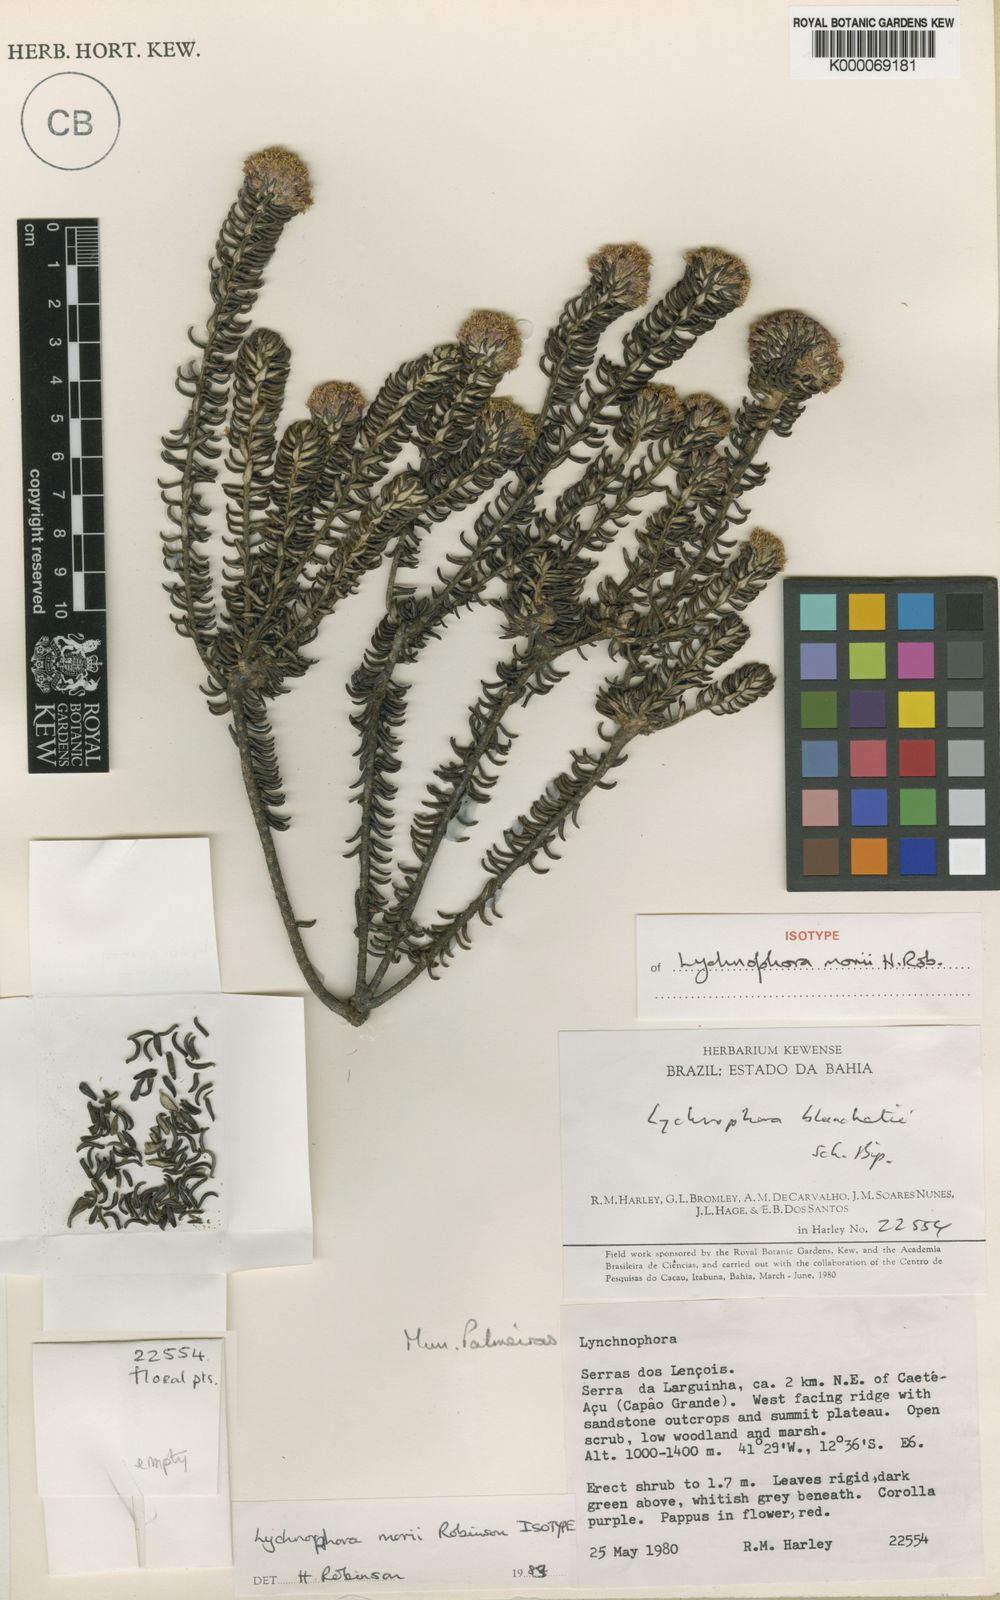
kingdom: Plantae
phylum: Tracheophyta
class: Magnoliopsida
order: Asterales
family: Asteraceae
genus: Lychnophorella
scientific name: Lychnophorella morii
